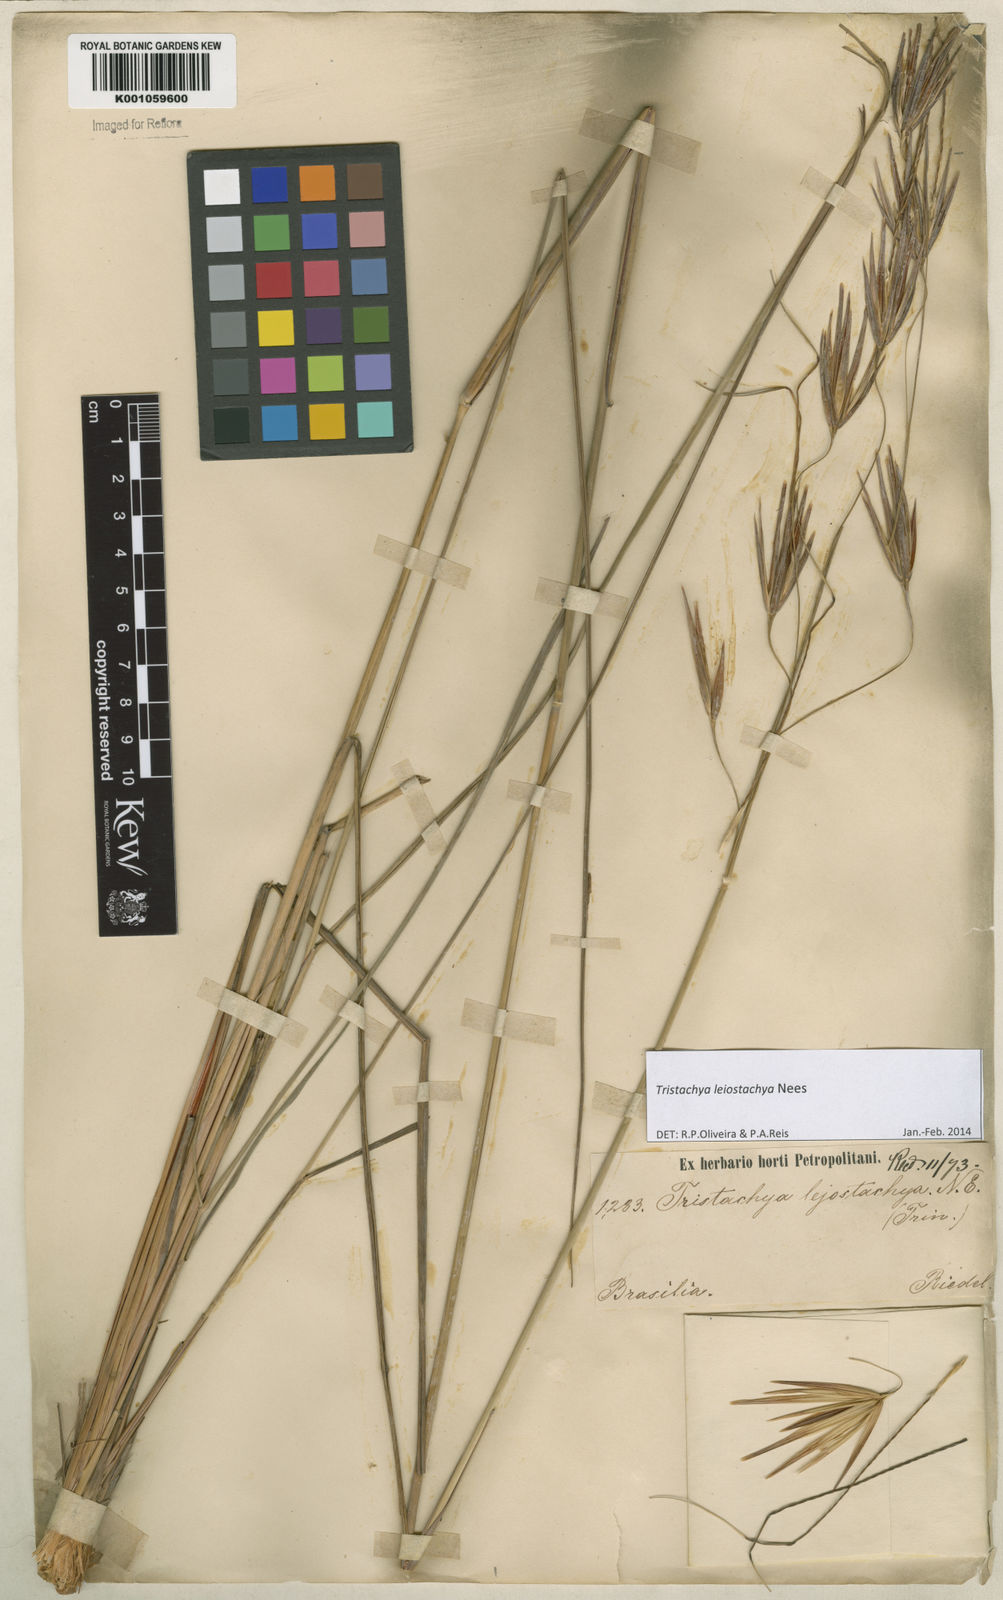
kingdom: Plantae
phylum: Tracheophyta
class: Liliopsida
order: Poales
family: Poaceae
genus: Tristachya
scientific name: Tristachya leiostachya
